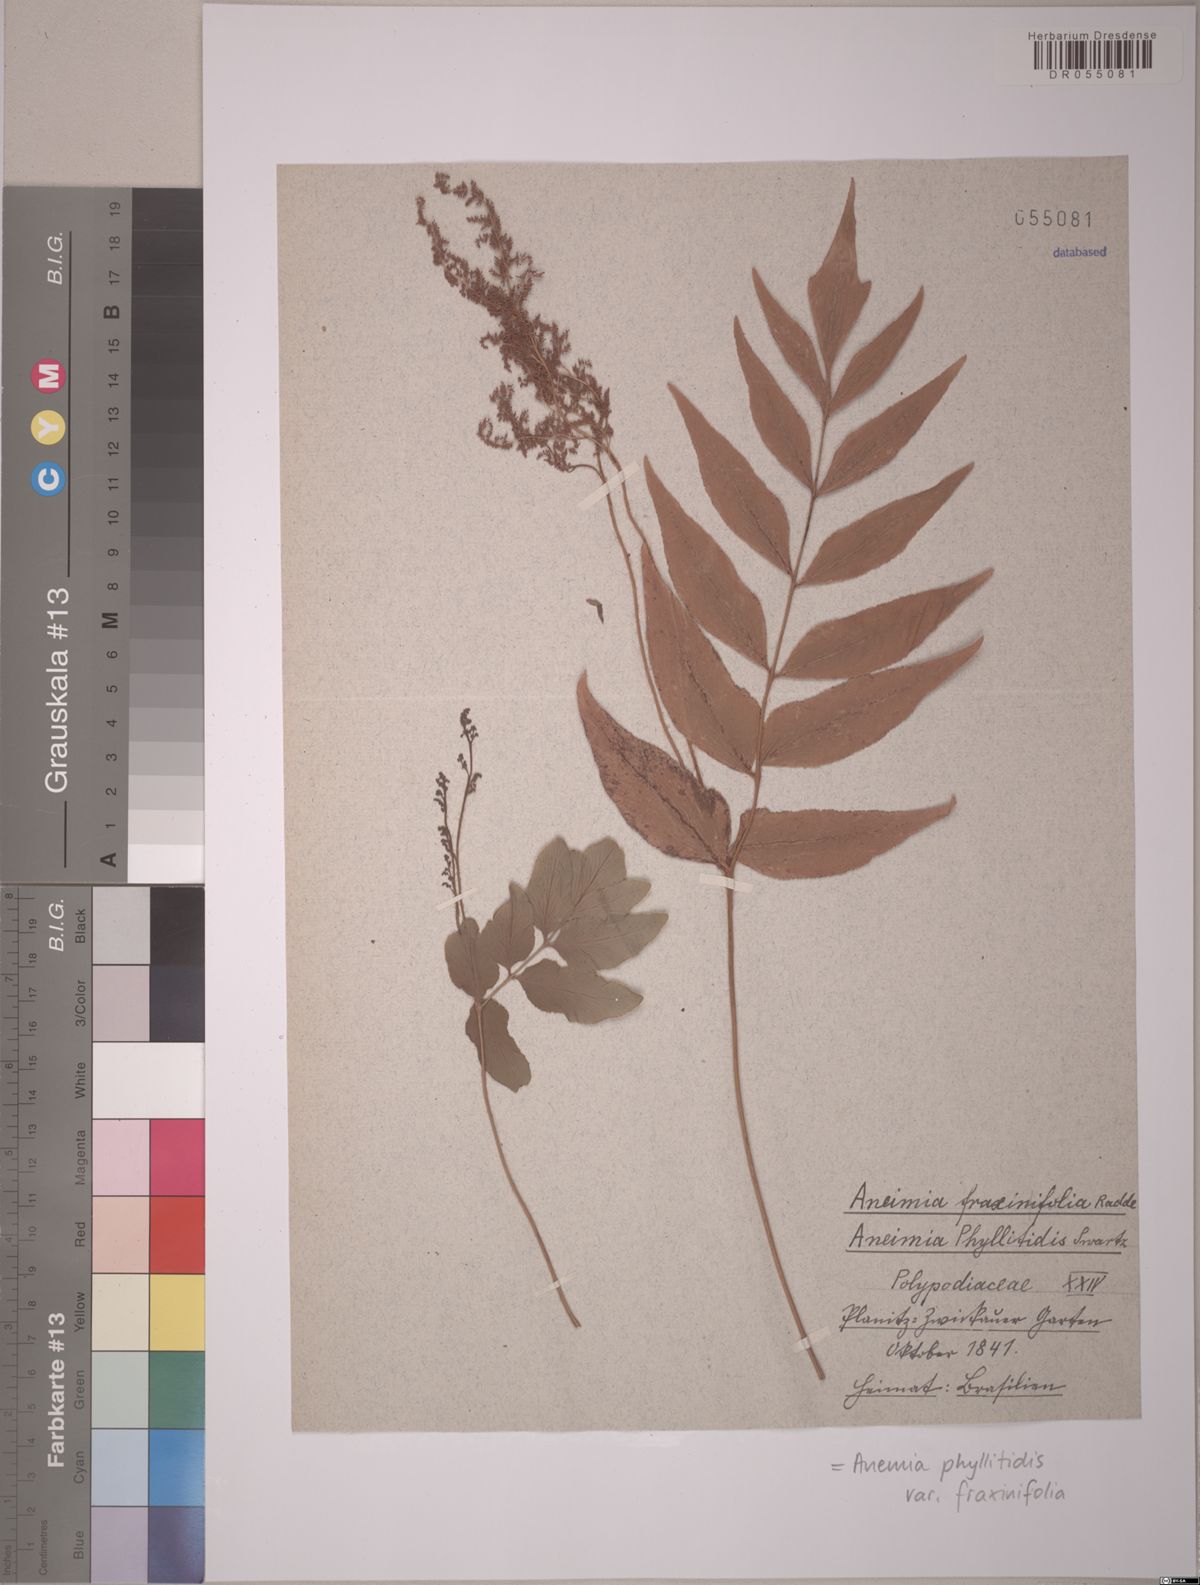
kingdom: Plantae
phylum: Tracheophyta
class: Polypodiopsida
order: Schizaeales
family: Anemiaceae
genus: Anemia
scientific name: Anemia phyllitidis
